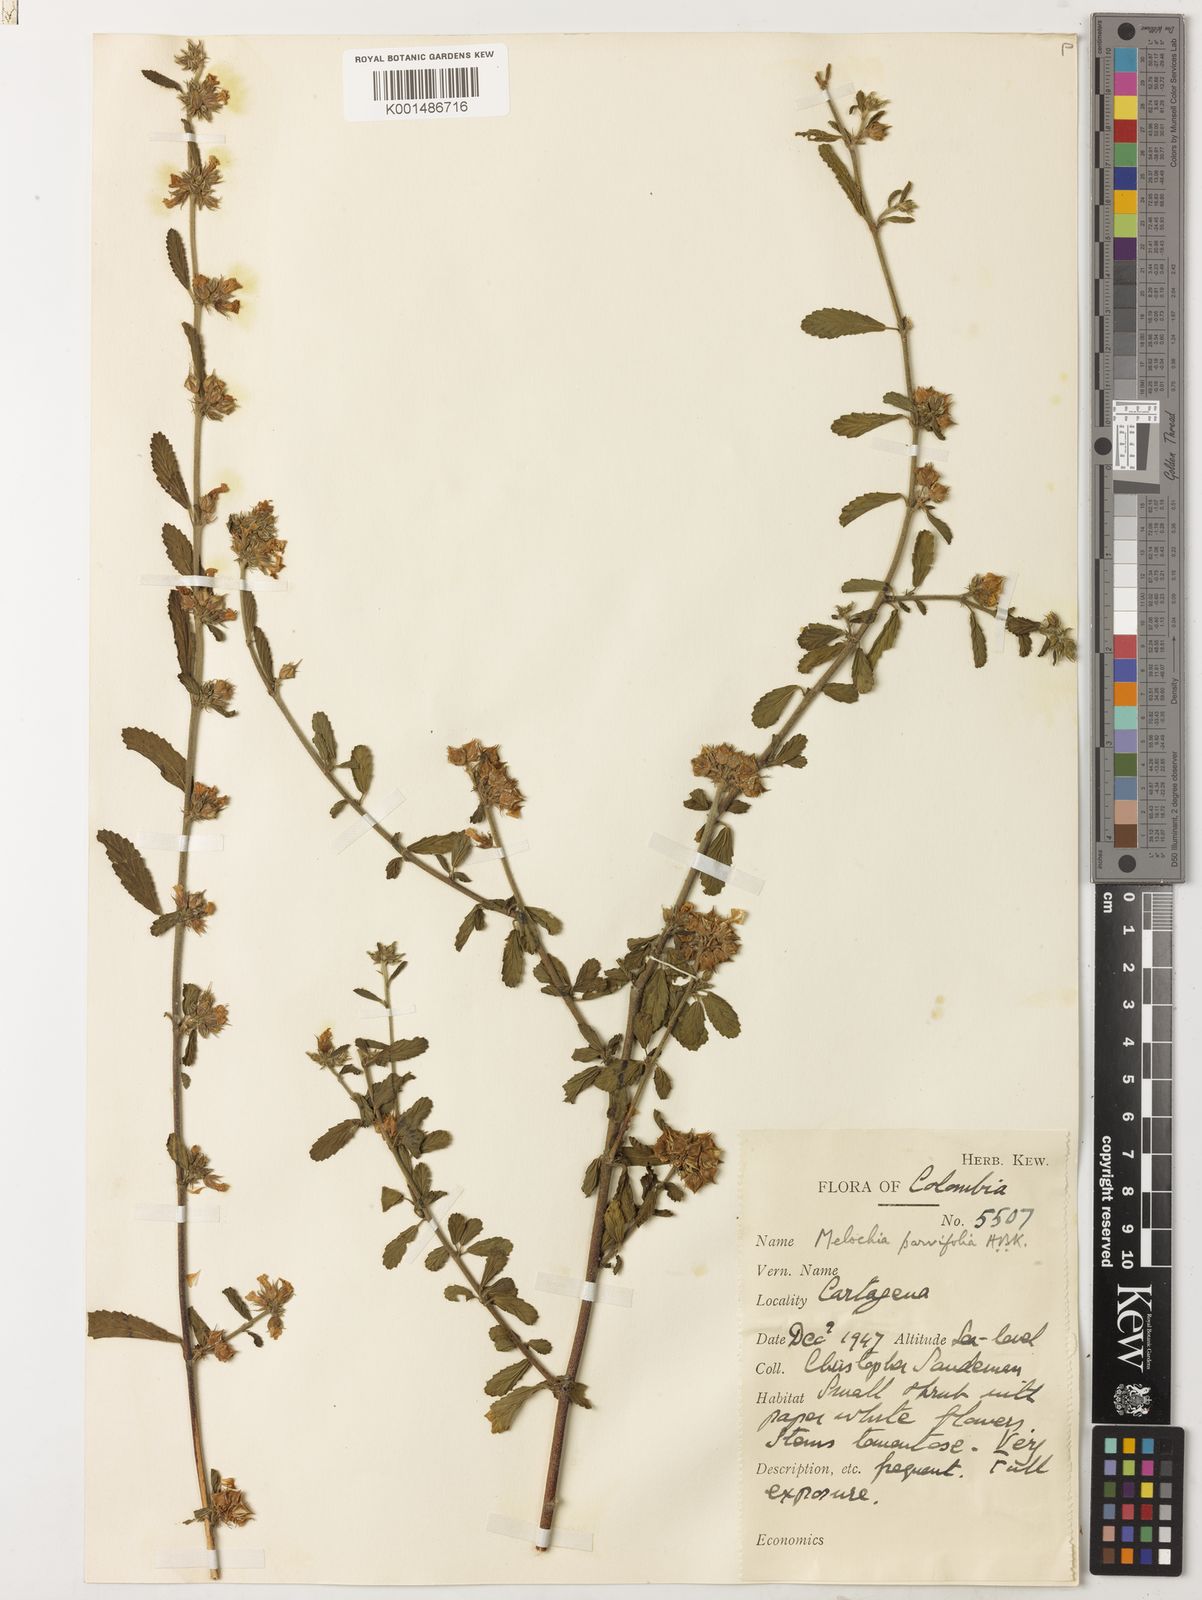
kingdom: Plantae
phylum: Tracheophyta
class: Magnoliopsida
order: Malvales
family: Malvaceae
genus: Melochia
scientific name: Melochia parvifolia
